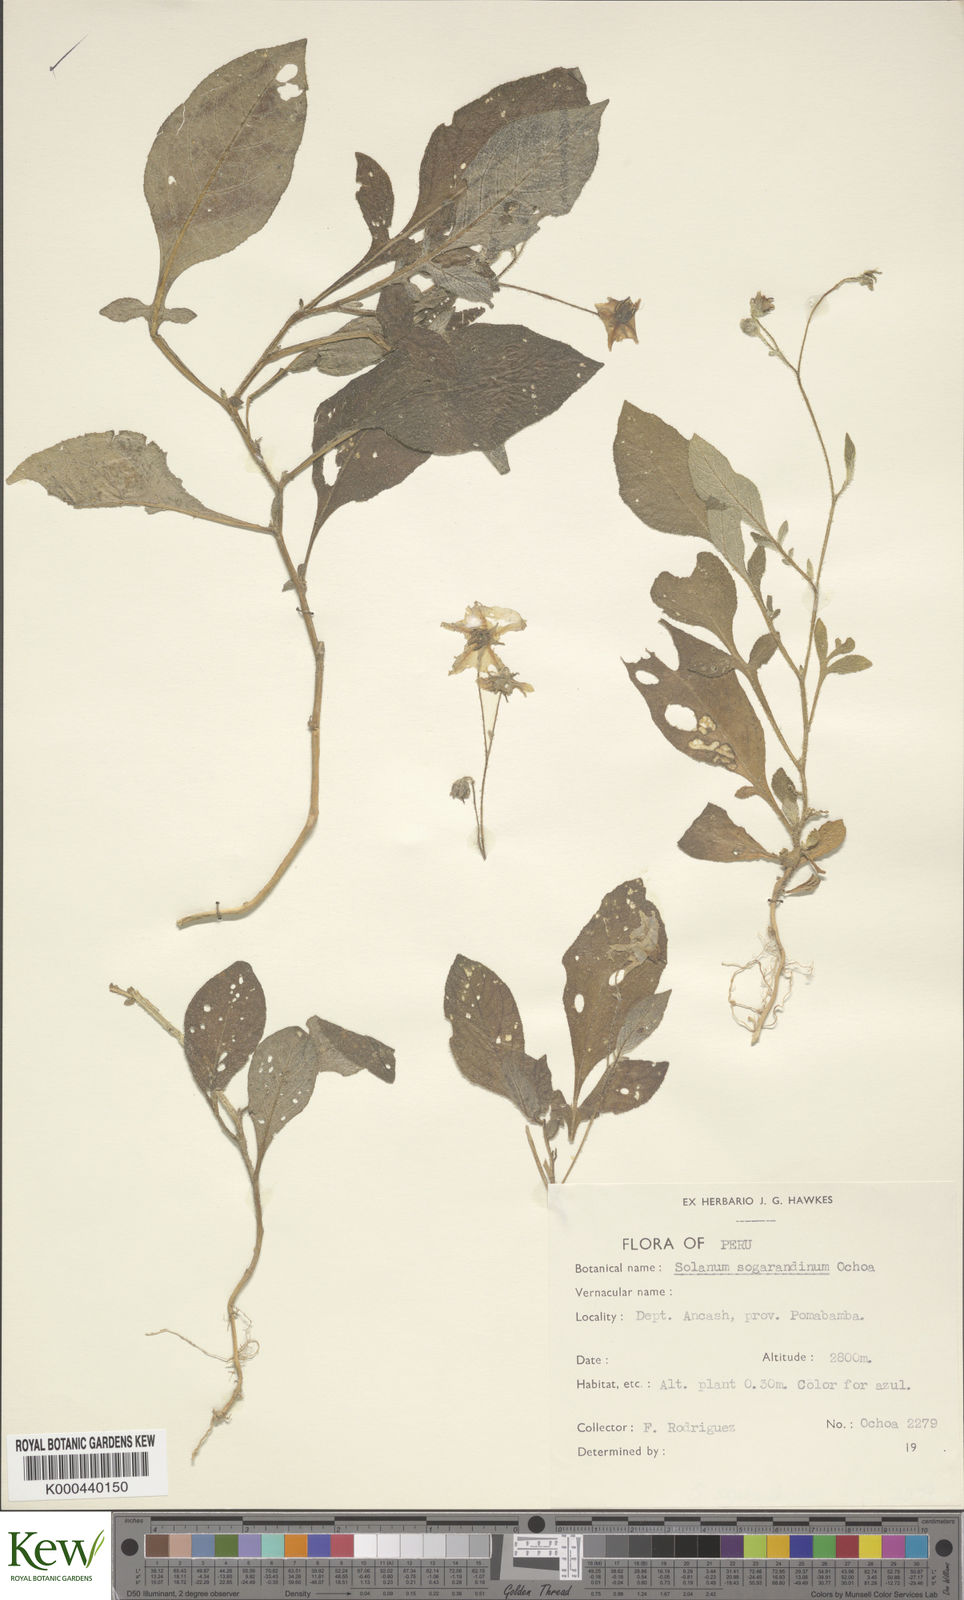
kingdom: Plantae
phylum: Tracheophyta
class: Magnoliopsida
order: Solanales
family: Solanaceae
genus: Solanum
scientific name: Solanum sogarandinum
